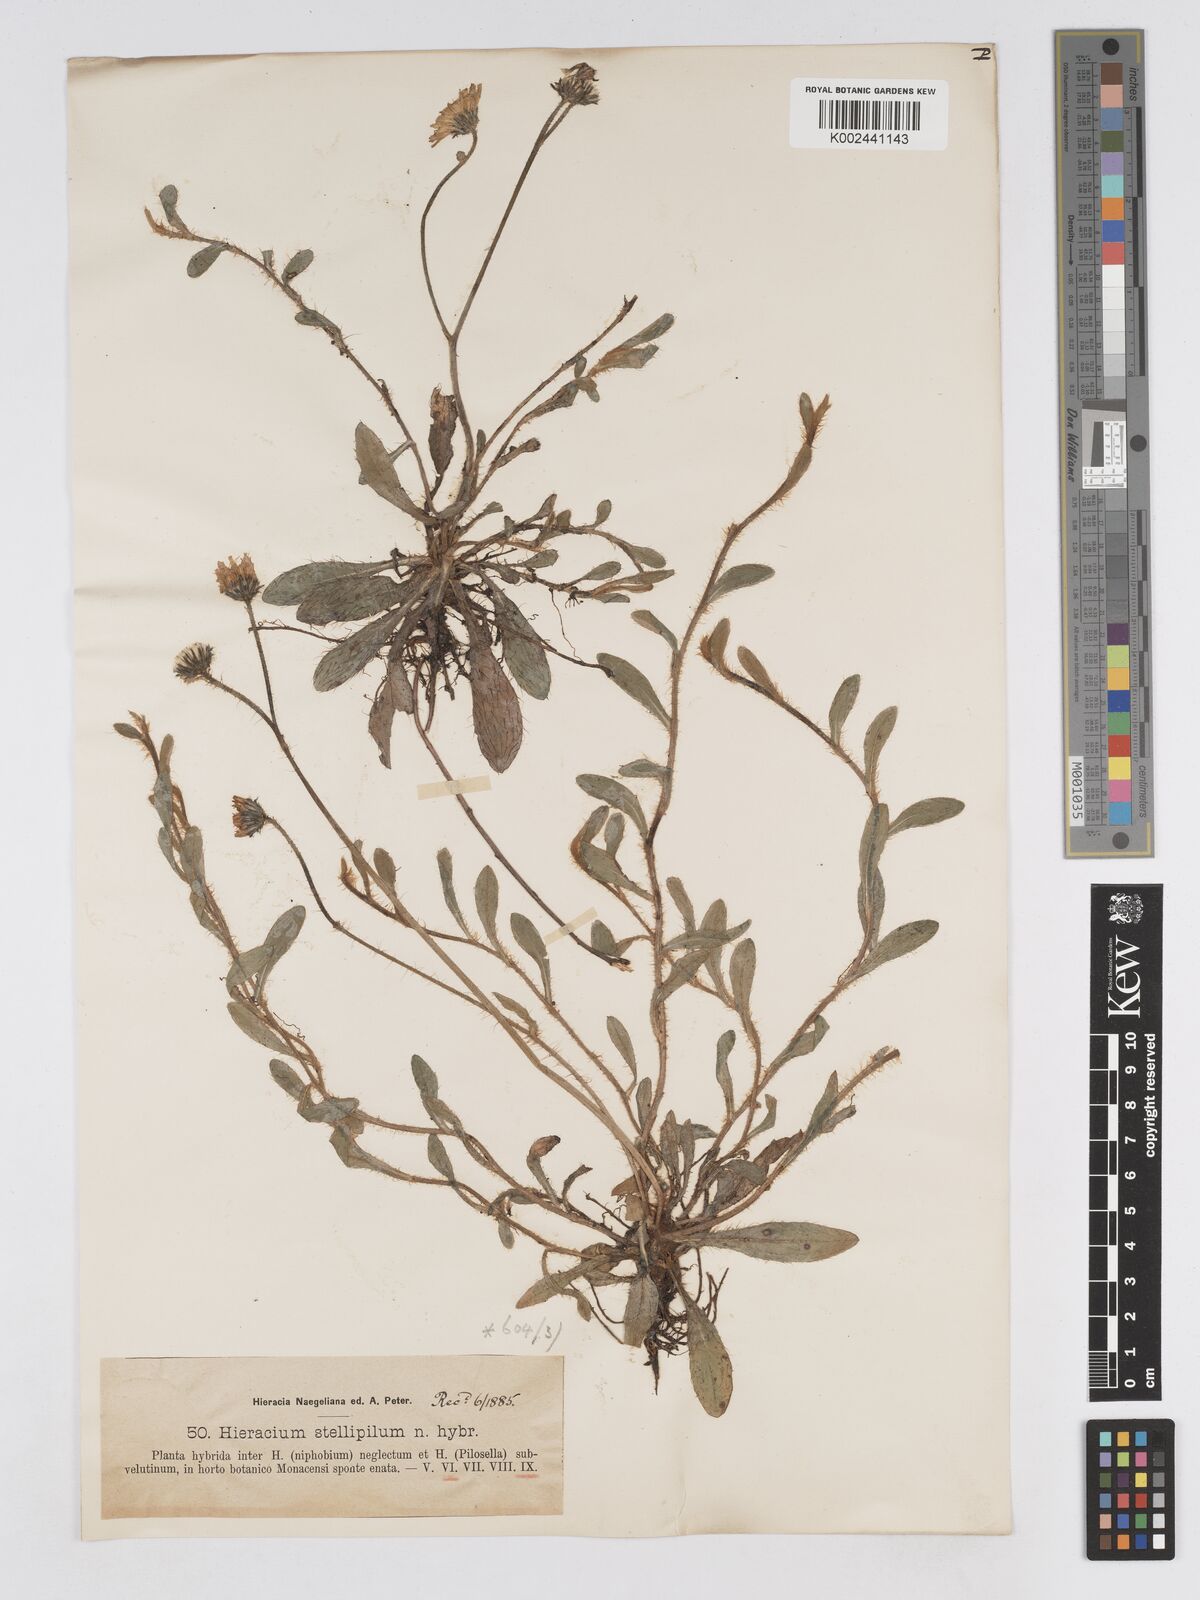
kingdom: Plantae
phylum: Tracheophyta
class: Magnoliopsida
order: Asterales
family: Asteraceae
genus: Pilosella
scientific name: Pilosella triplex
